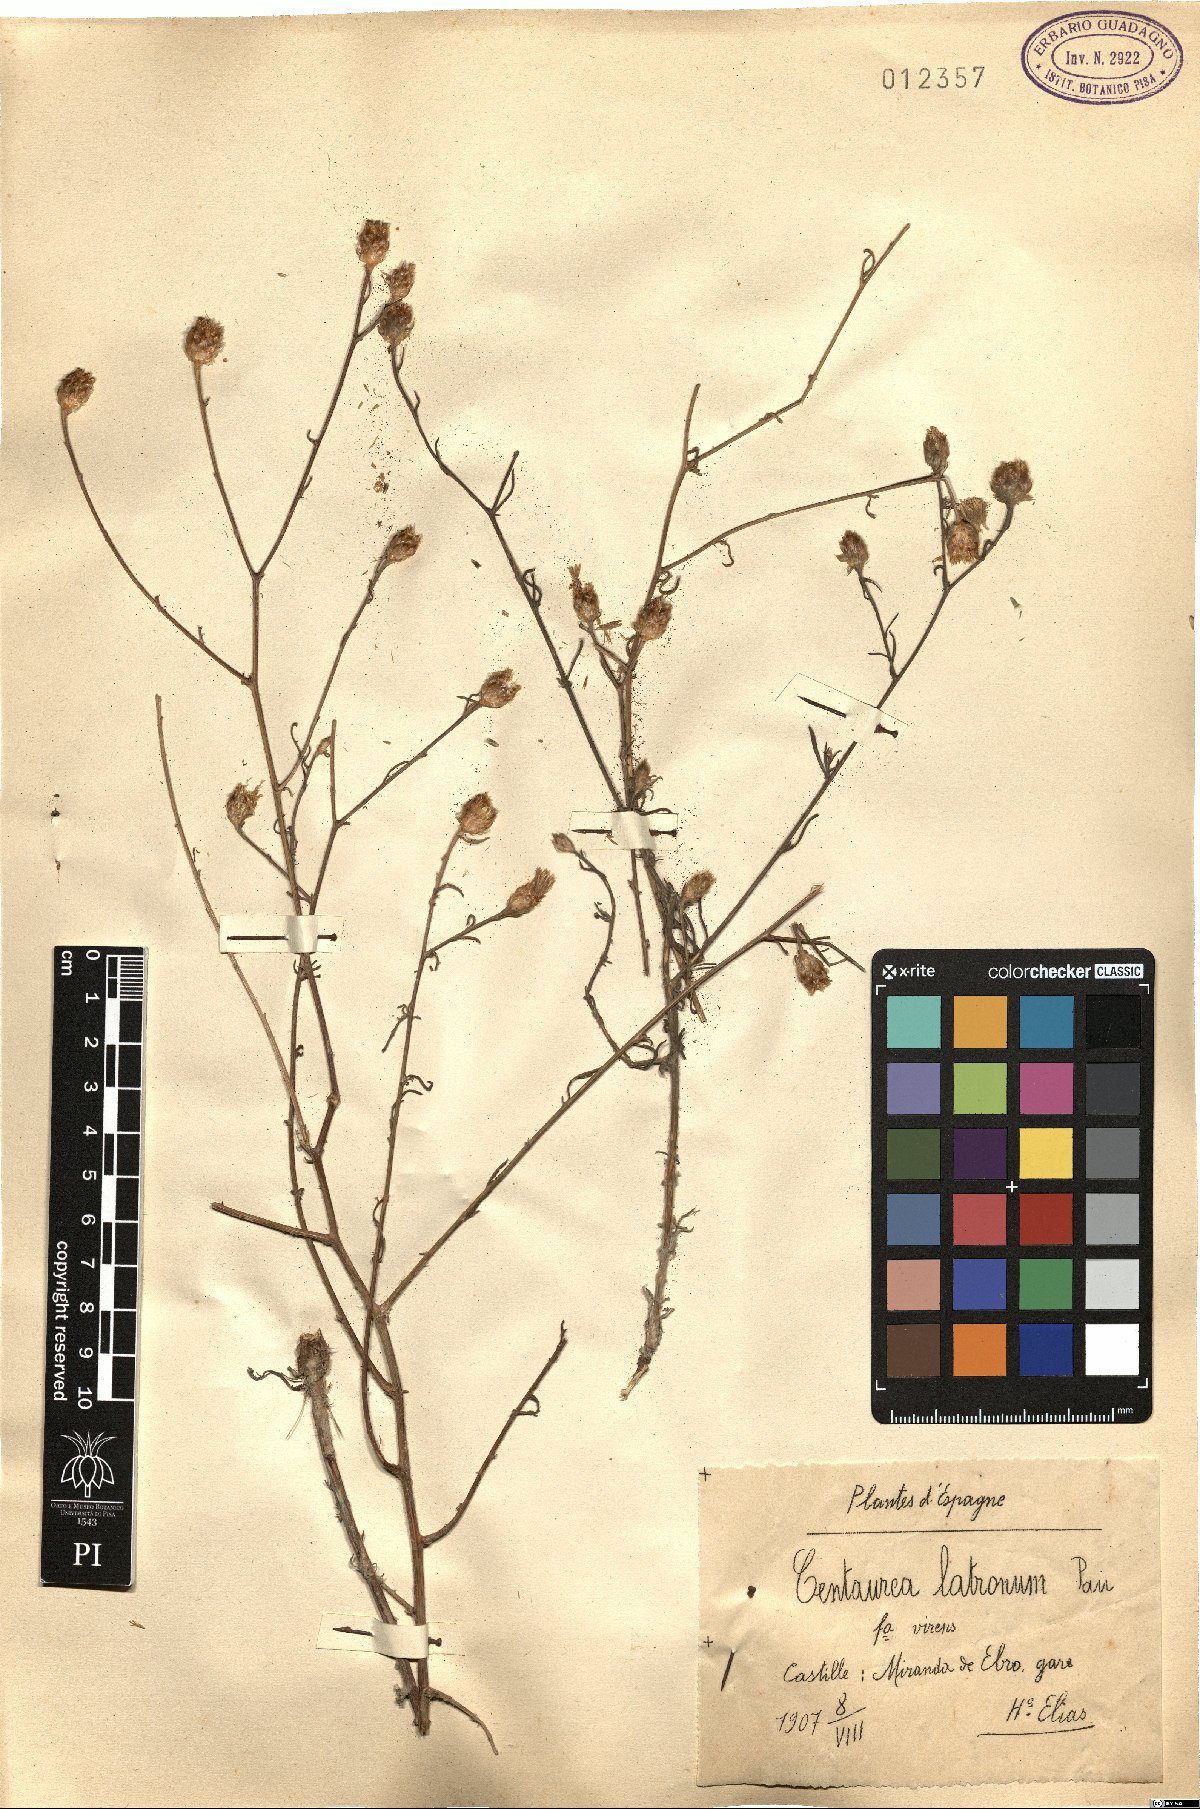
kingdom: Plantae
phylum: Tracheophyta
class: Magnoliopsida
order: Asterales
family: Asteraceae
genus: Centaurea
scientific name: Centaurea alba
